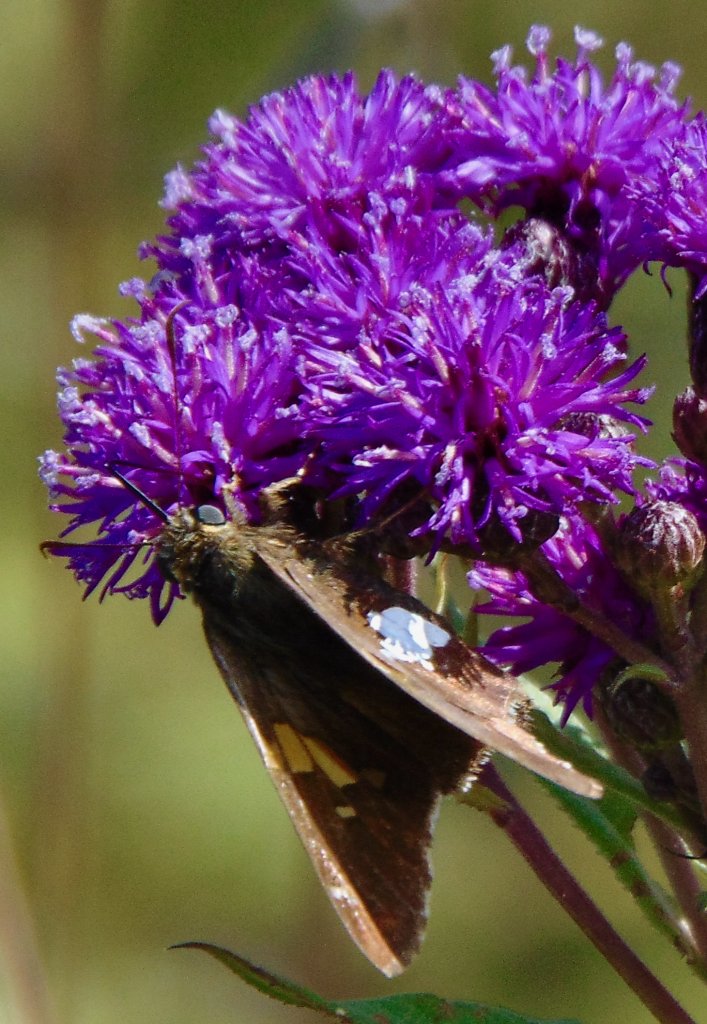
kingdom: Animalia
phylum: Arthropoda
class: Insecta
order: Lepidoptera
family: Hesperiidae
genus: Epargyreus
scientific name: Epargyreus clarus
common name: Silver-spotted Skipper
